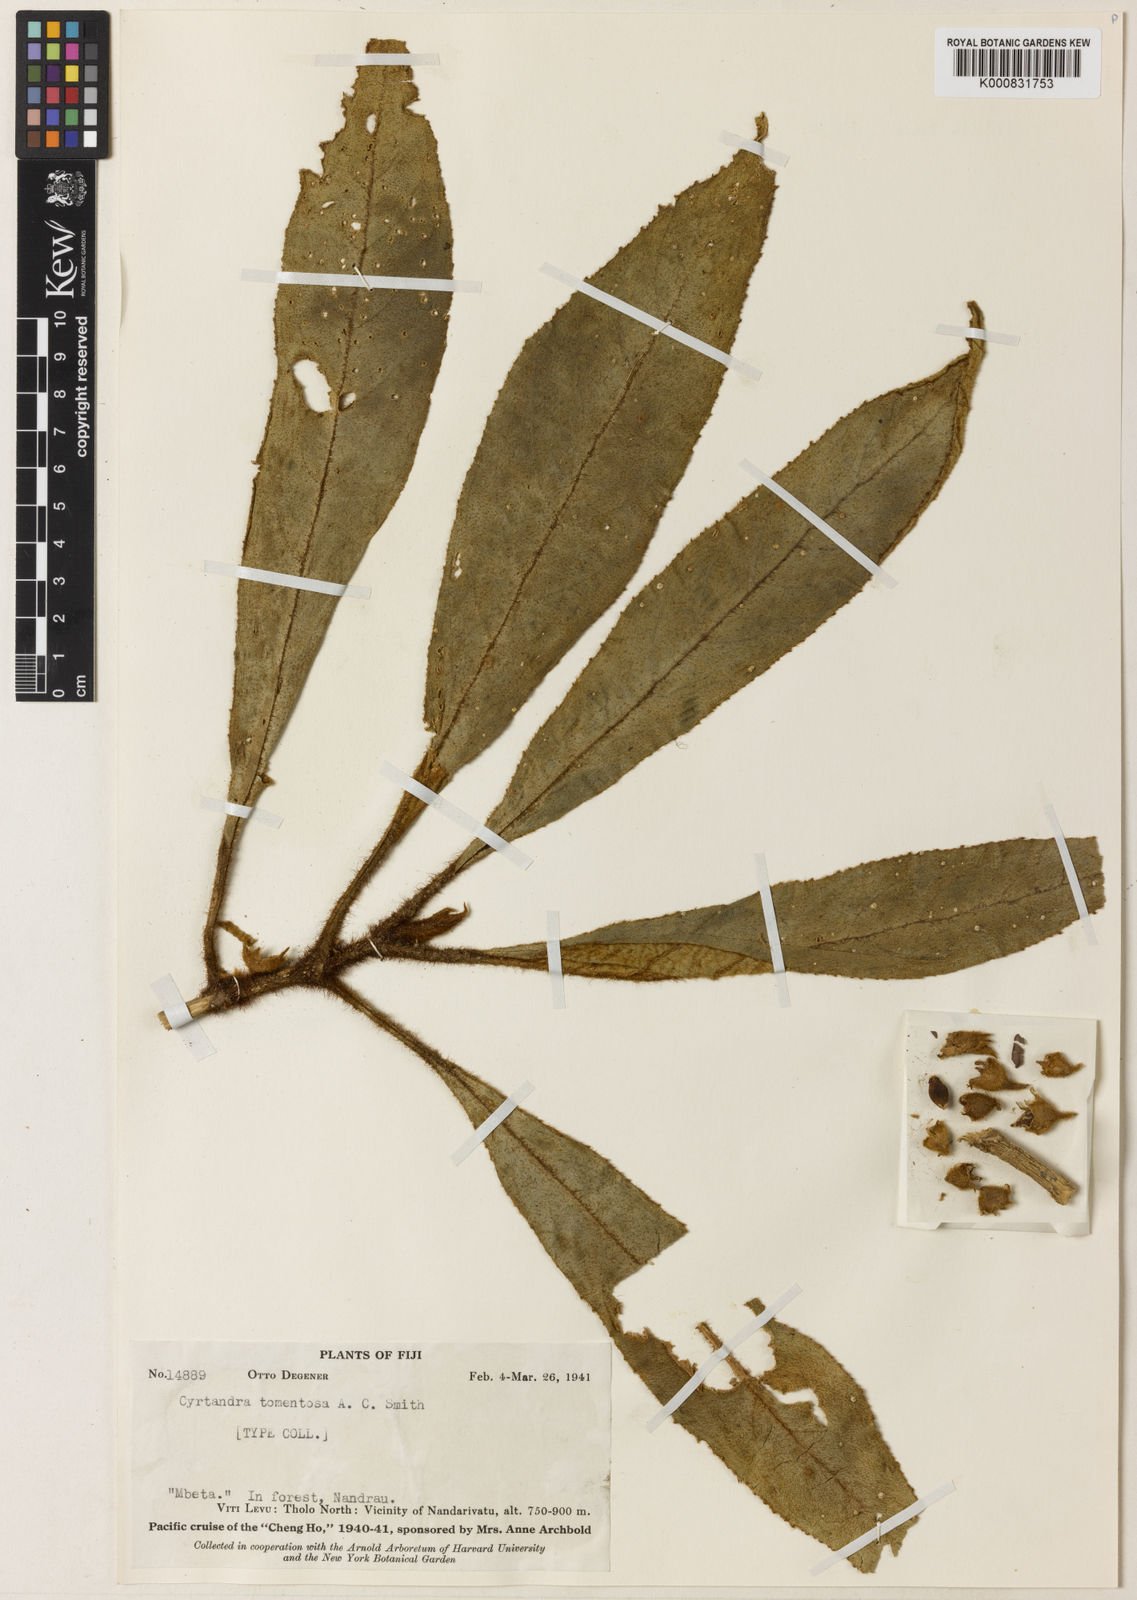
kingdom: Plantae
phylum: Tracheophyta
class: Magnoliopsida
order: Lamiales
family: Gesneriaceae
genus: Cyrtandra
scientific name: Cyrtandra chippendalei
